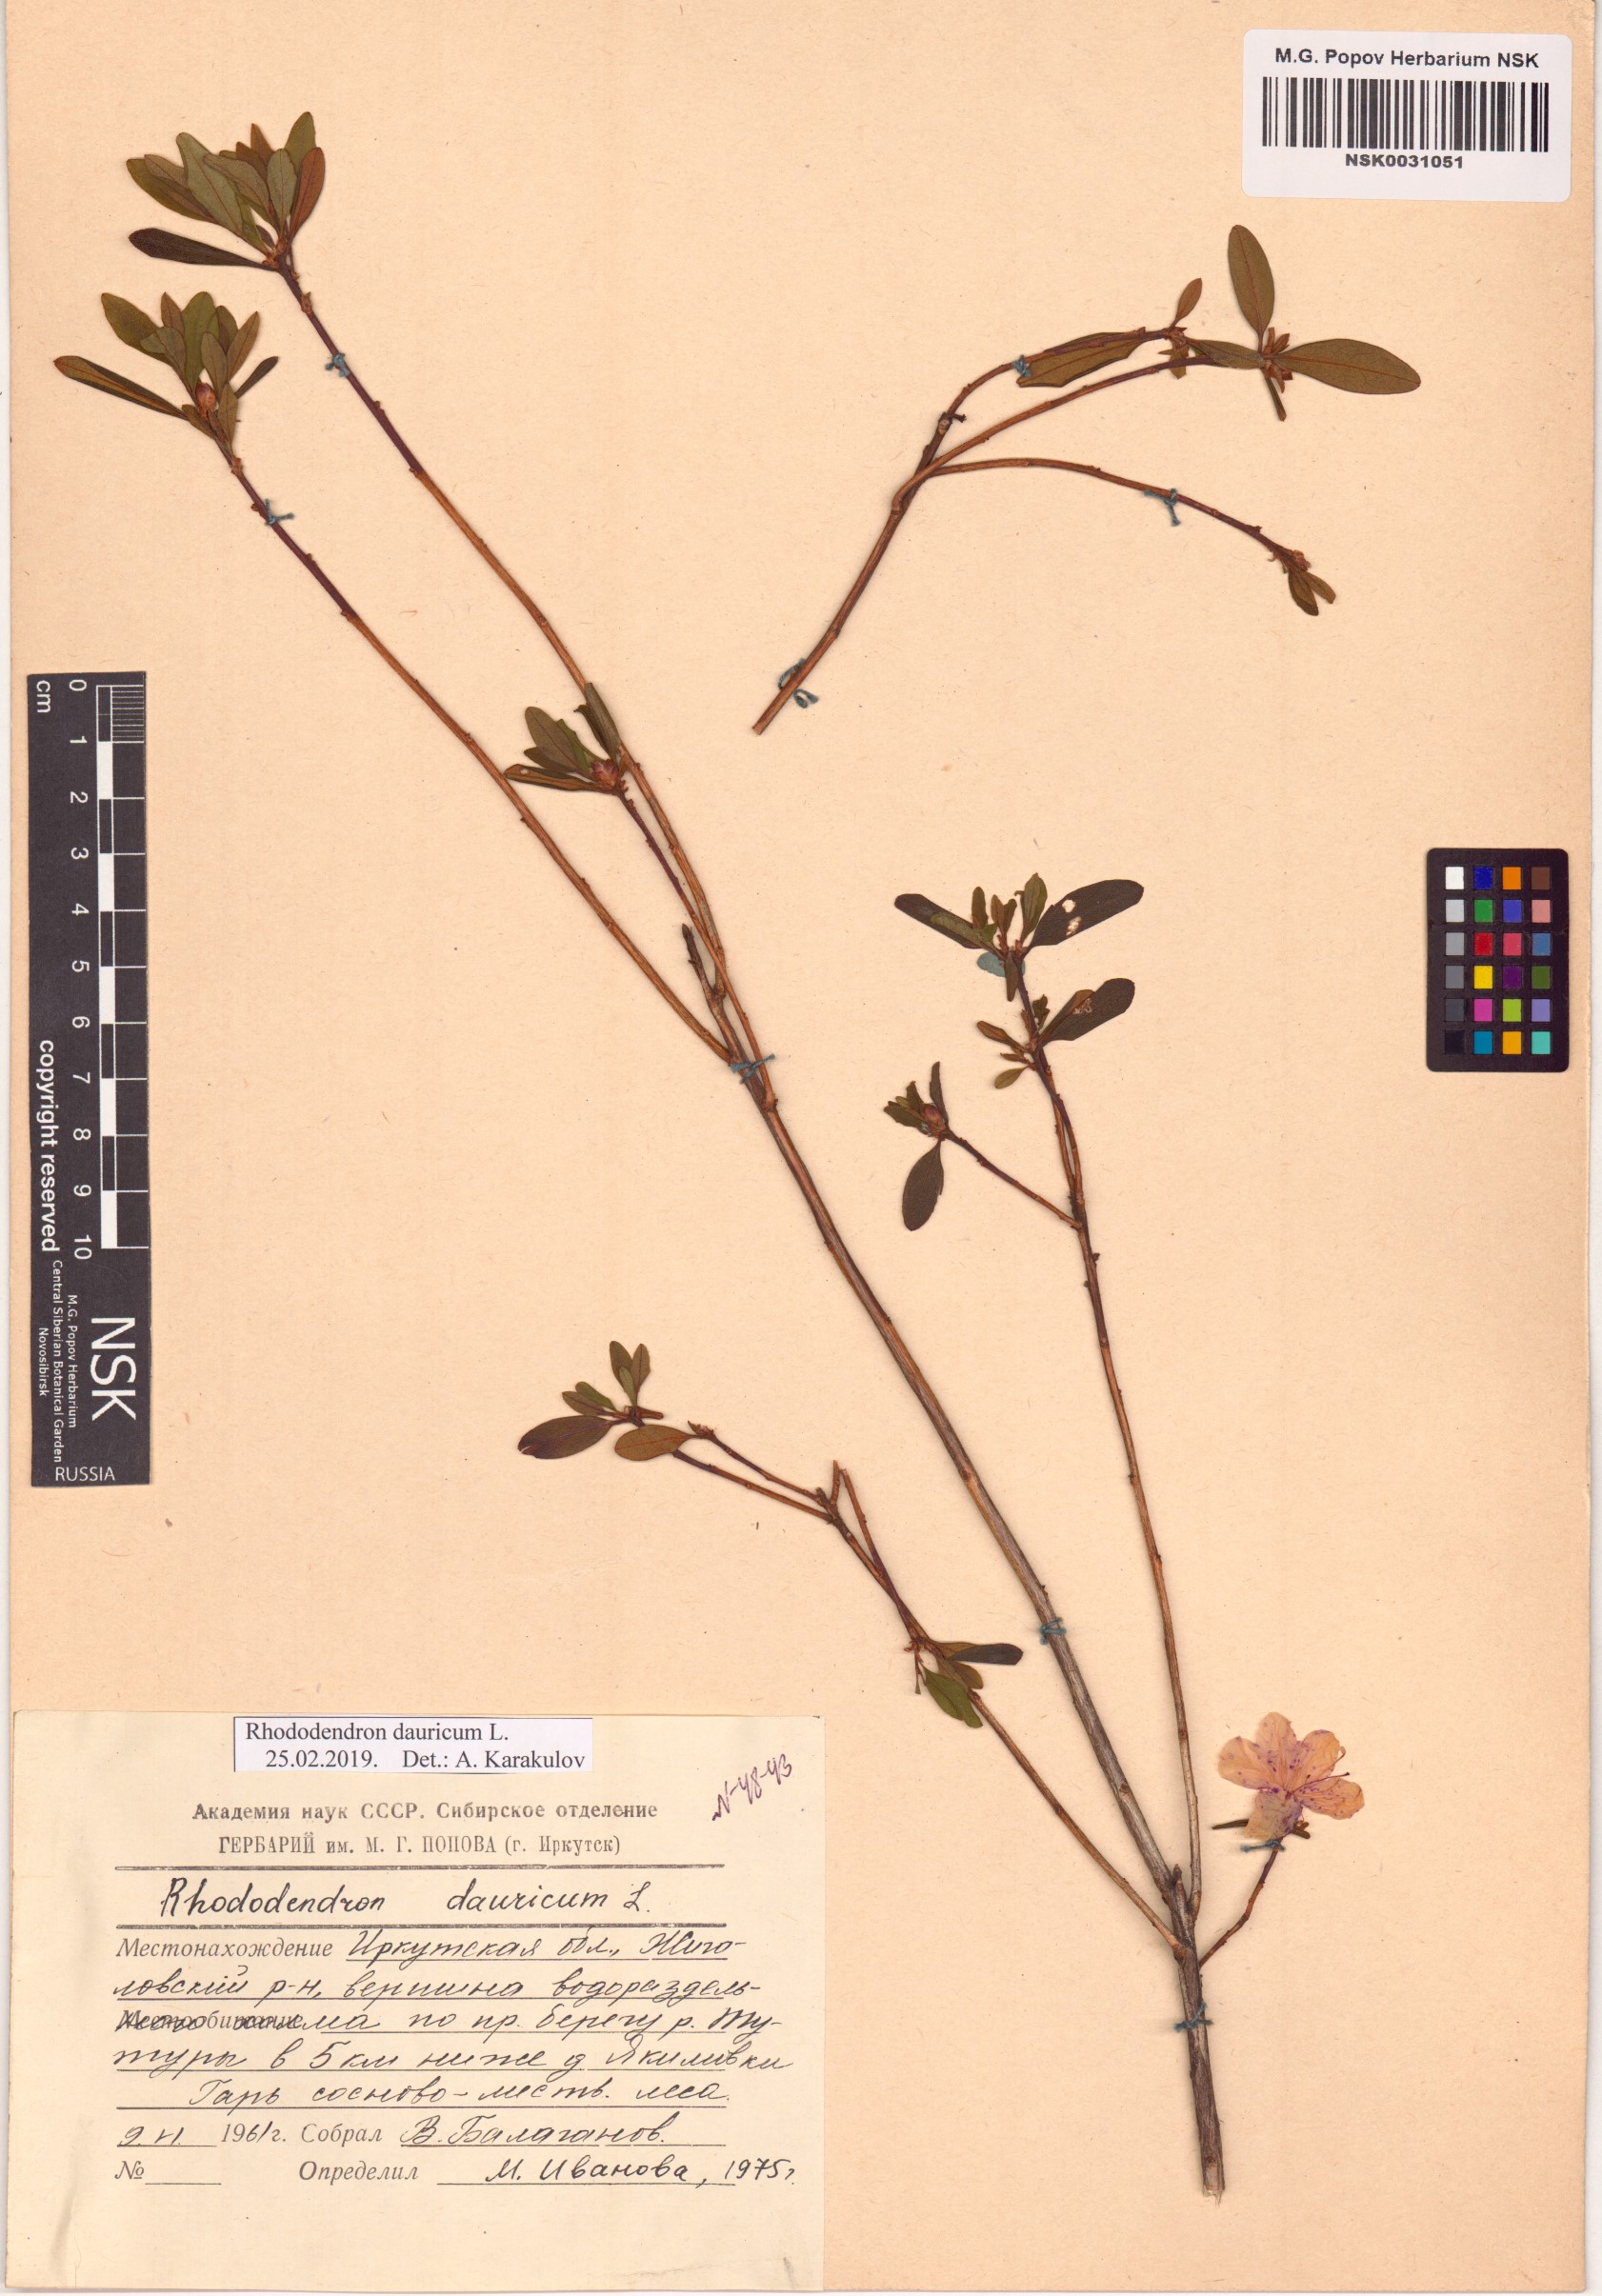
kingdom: Plantae
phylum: Tracheophyta
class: Magnoliopsida
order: Ericales
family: Ericaceae
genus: Rhododendron
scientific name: Rhododendron dauricum
